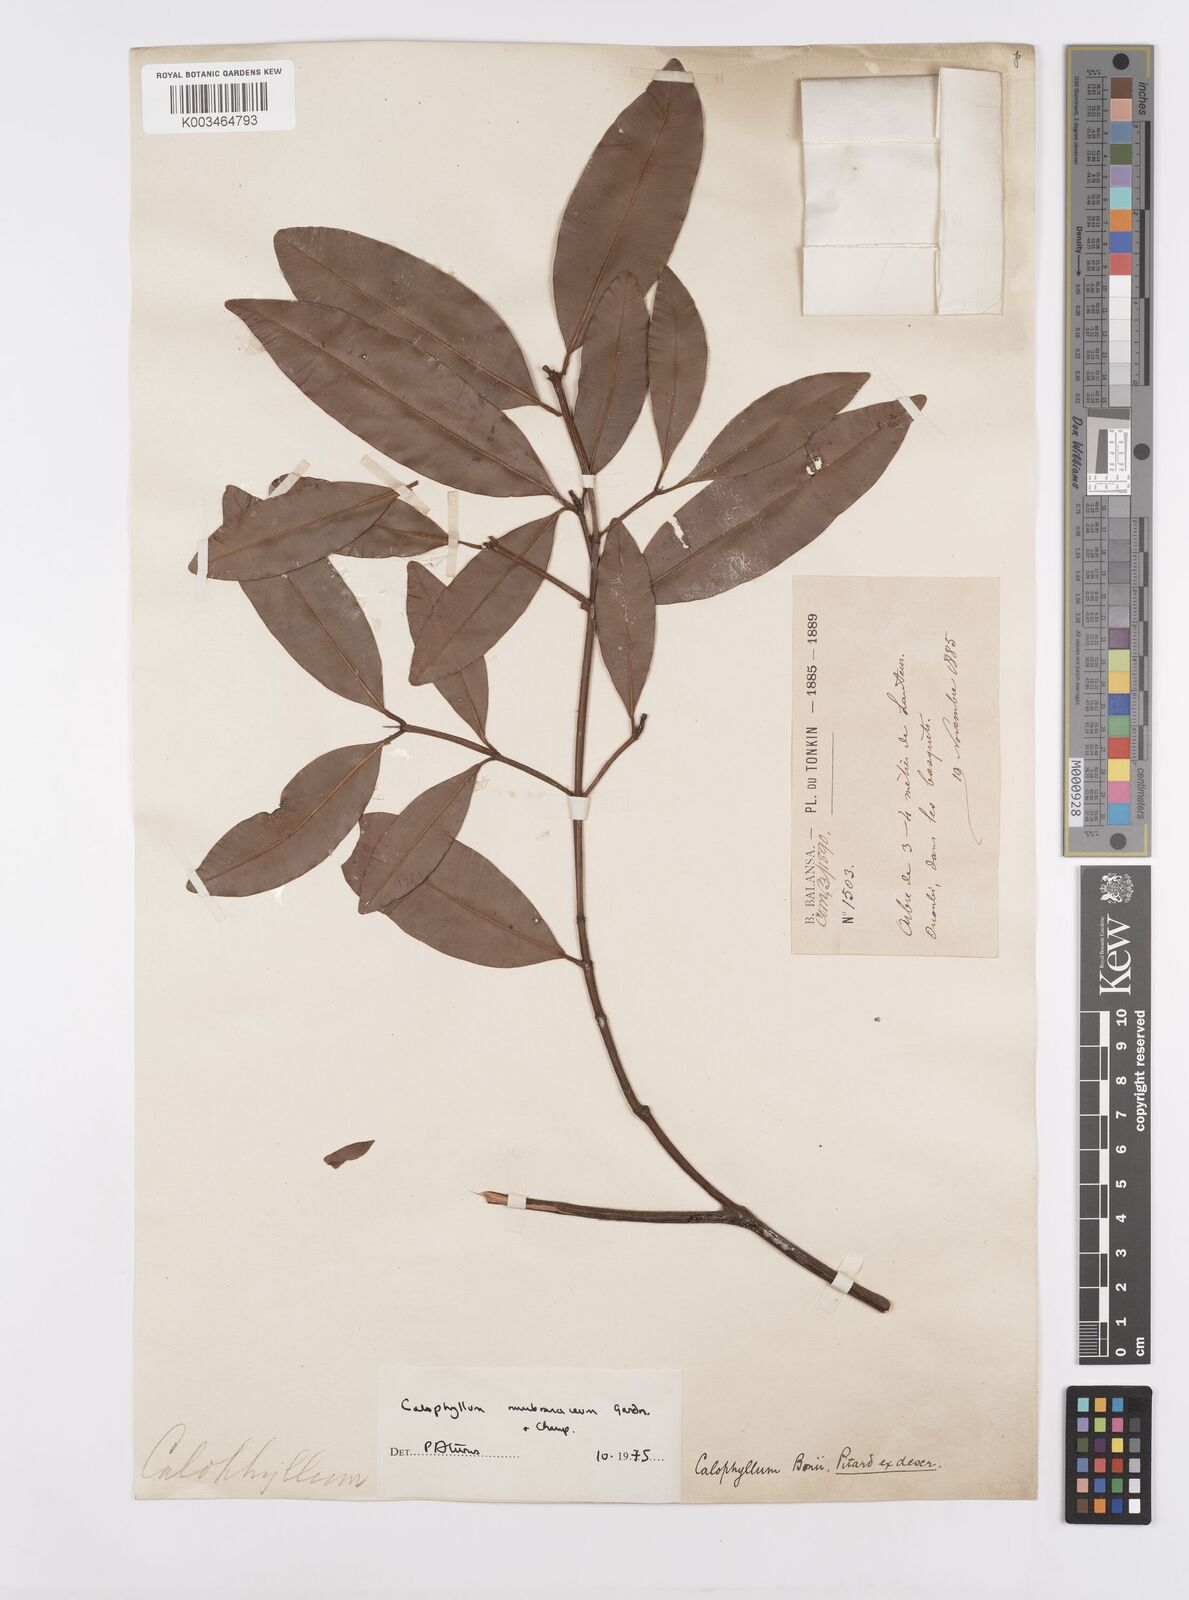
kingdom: Plantae
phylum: Tracheophyta
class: Magnoliopsida
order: Malpighiales
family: Calophyllaceae
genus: Calophyllum
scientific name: Calophyllum membranaceum
